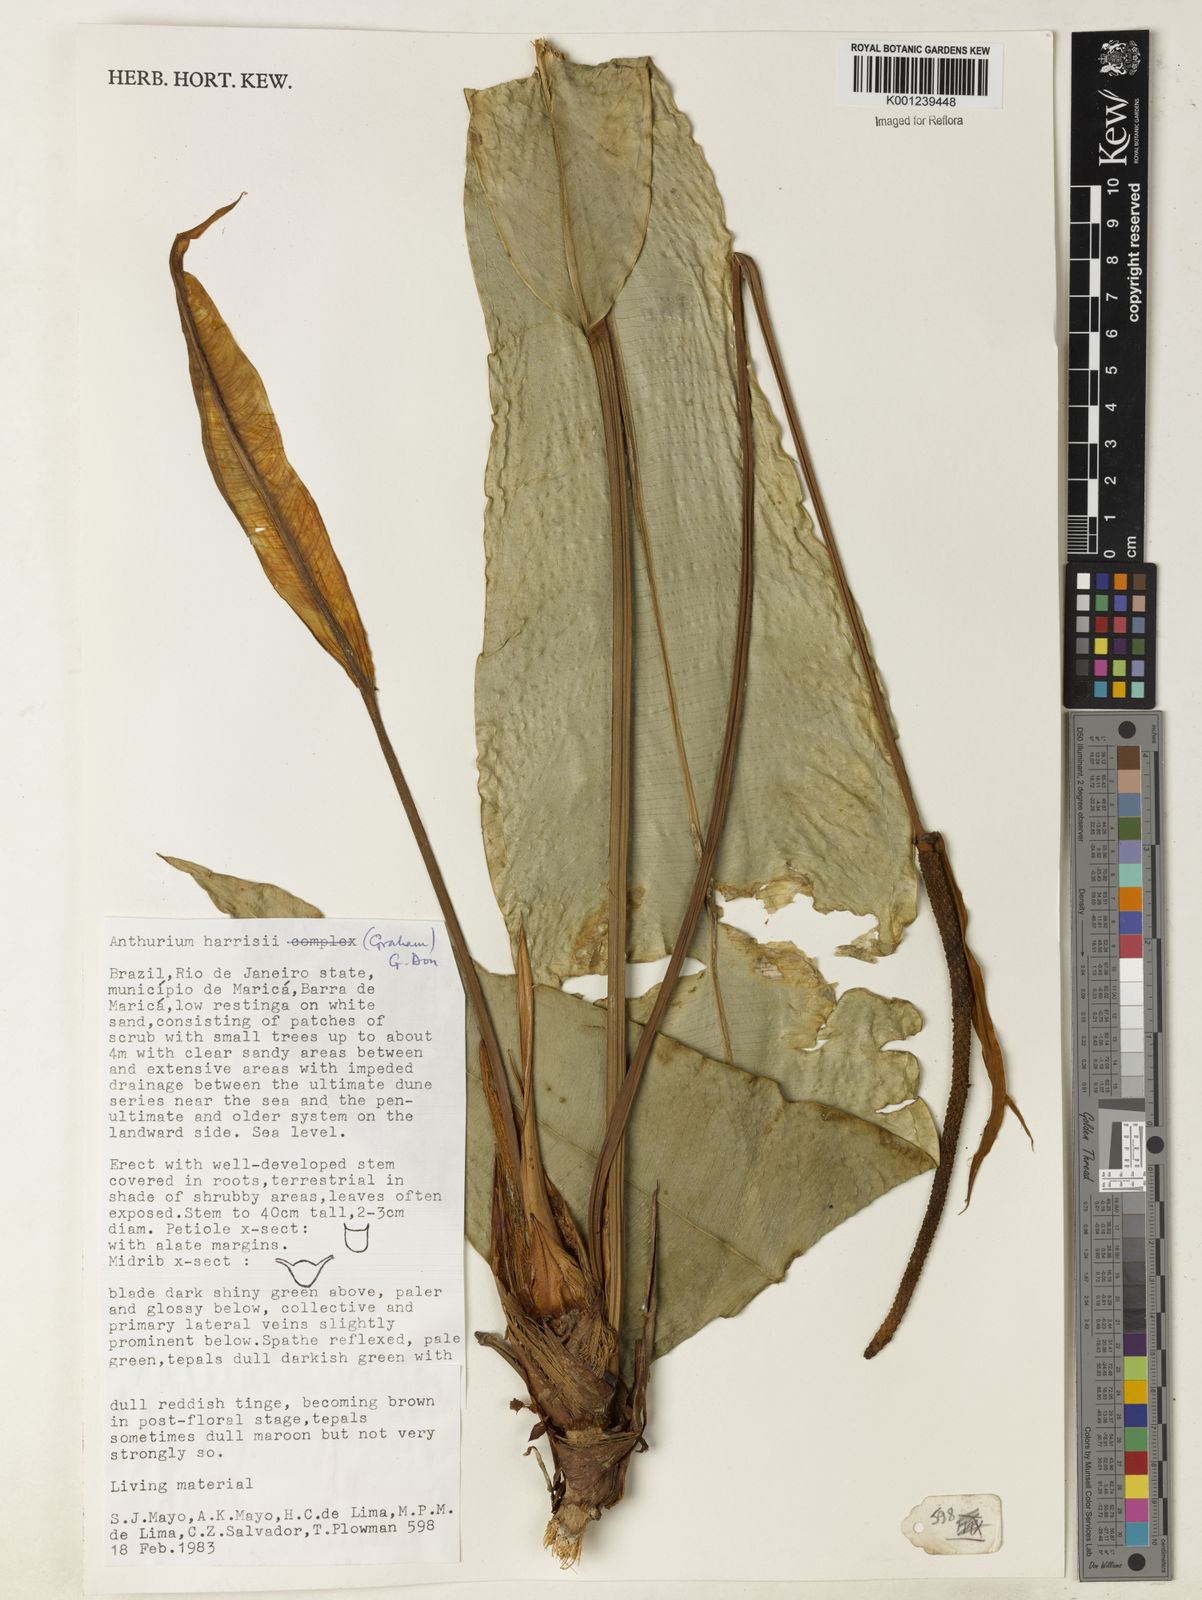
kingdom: Plantae
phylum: Tracheophyta
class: Liliopsida
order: Alismatales
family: Araceae
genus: Anthurium
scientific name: Anthurium harrisii
